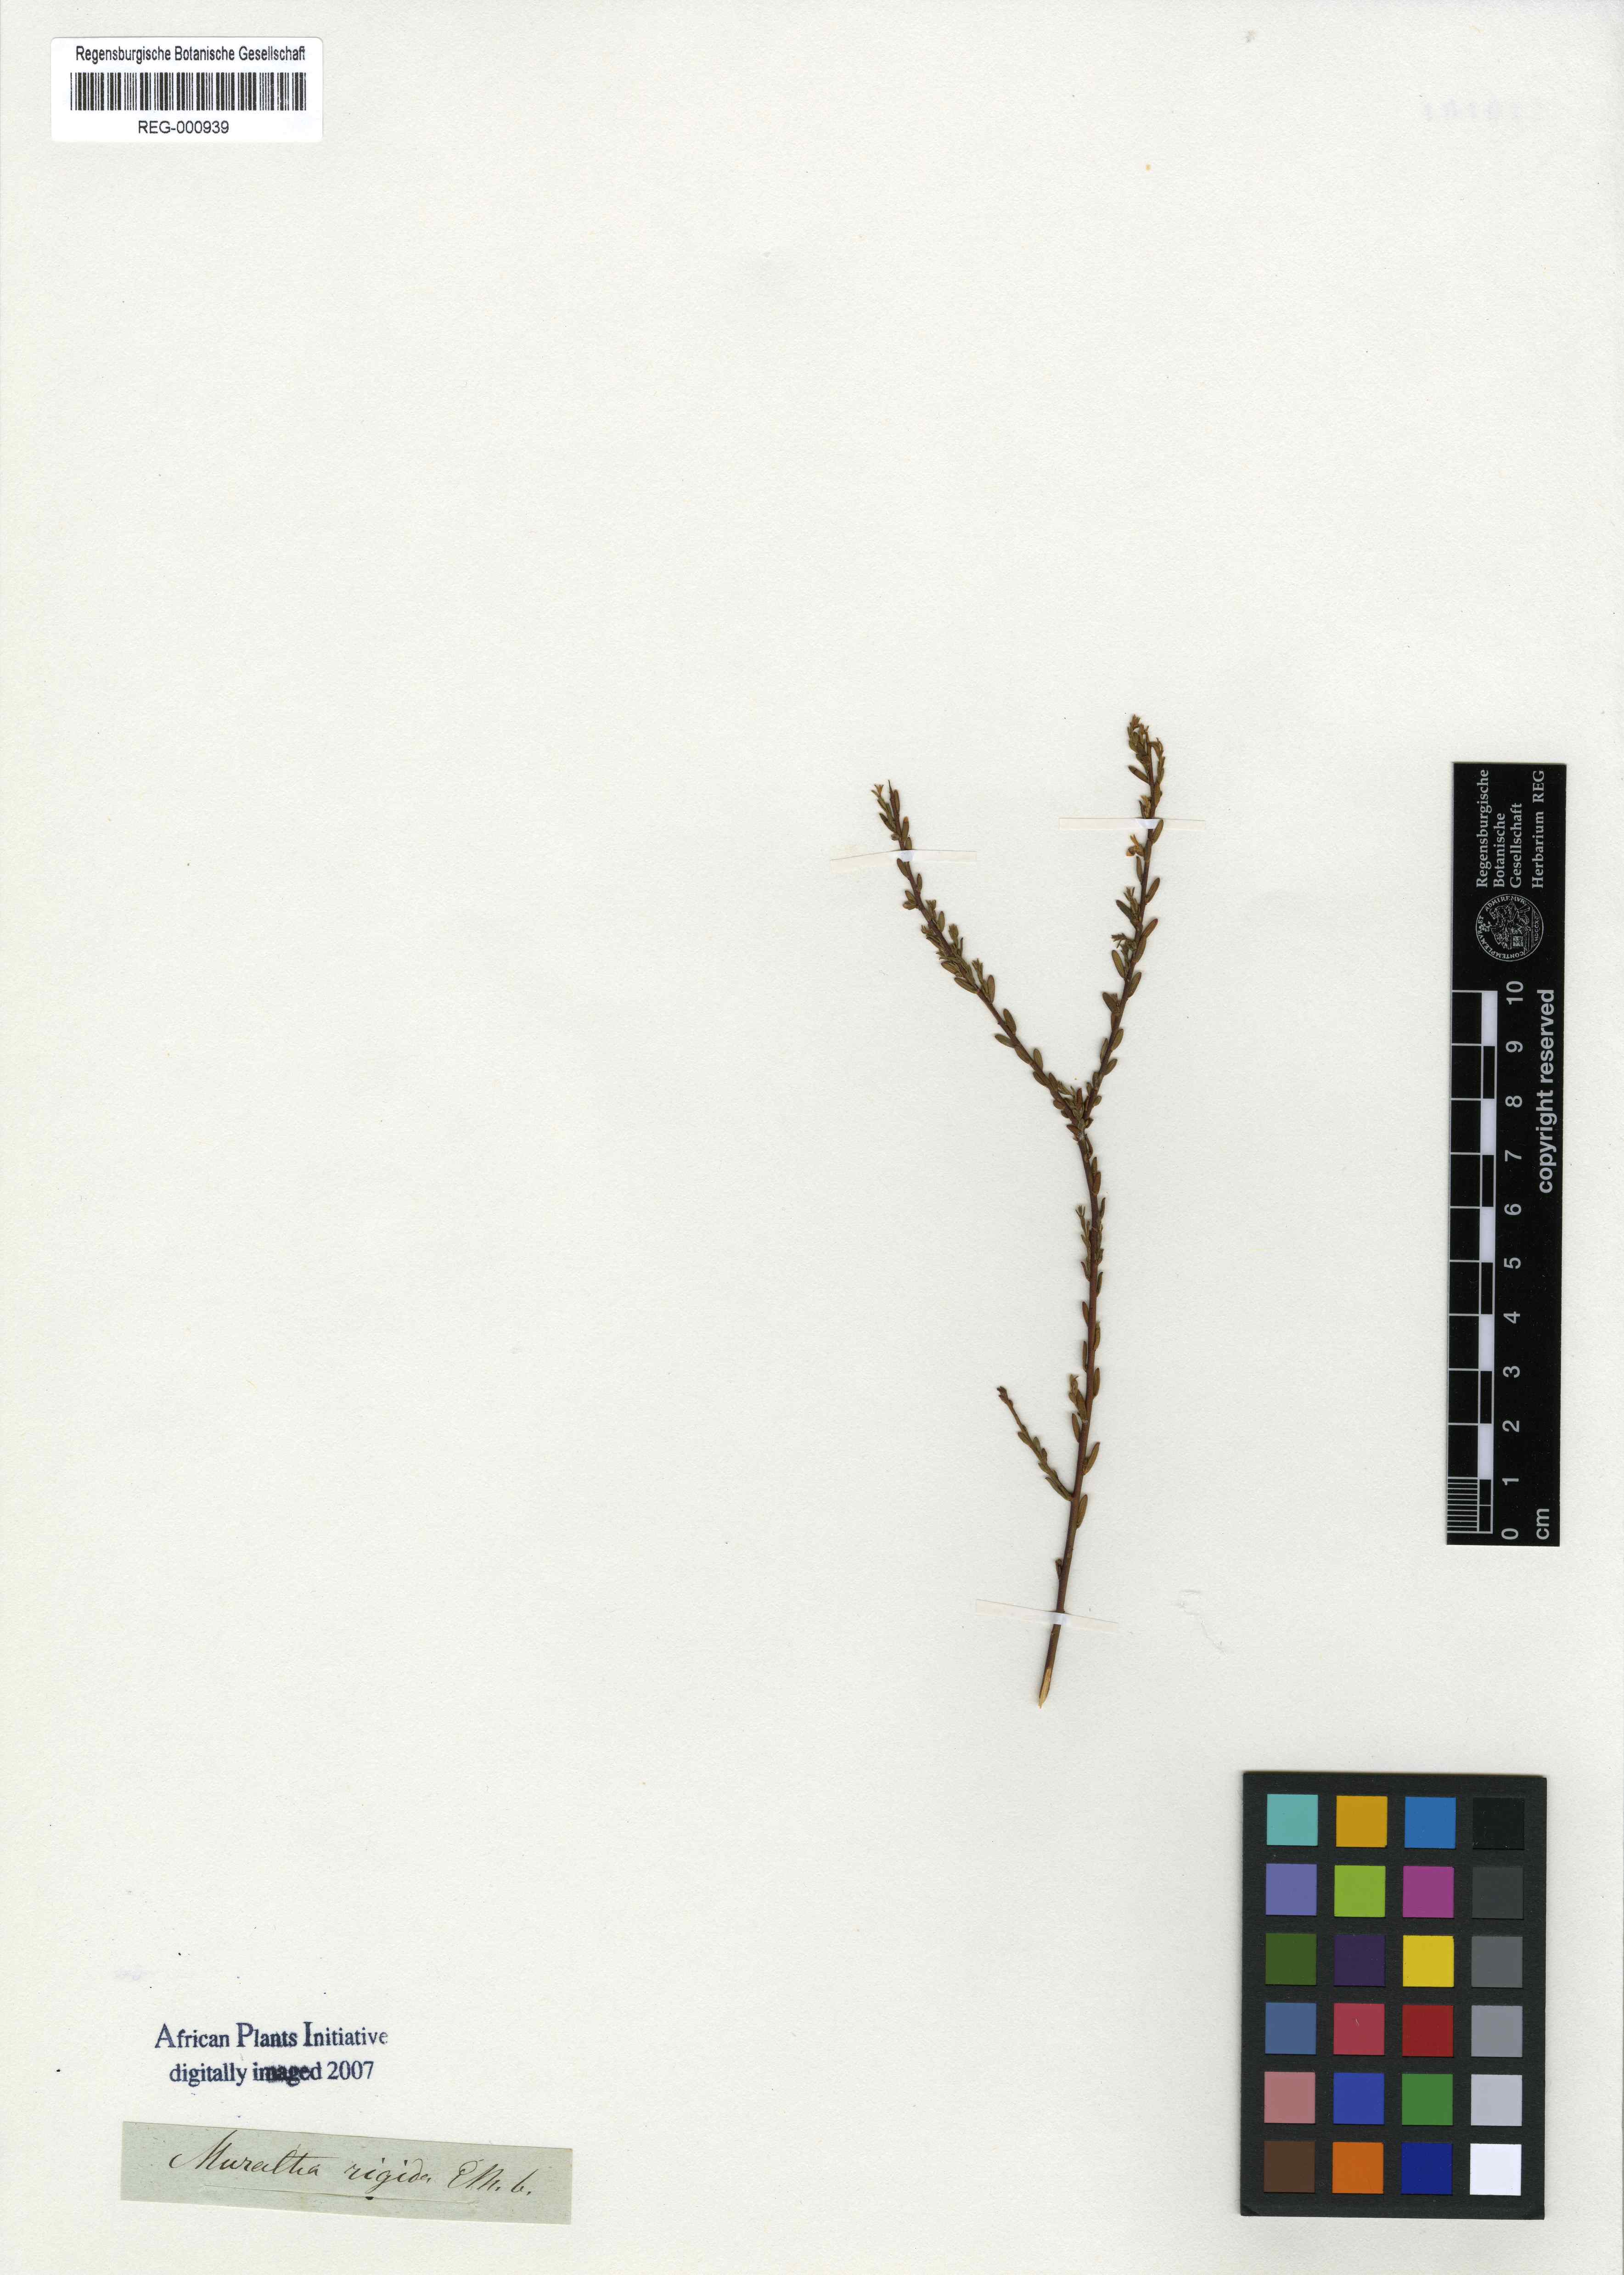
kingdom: Plantae
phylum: Tracheophyta
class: Magnoliopsida
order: Fabales
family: Polygalaceae
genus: Muraltia
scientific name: Muraltia rigida
